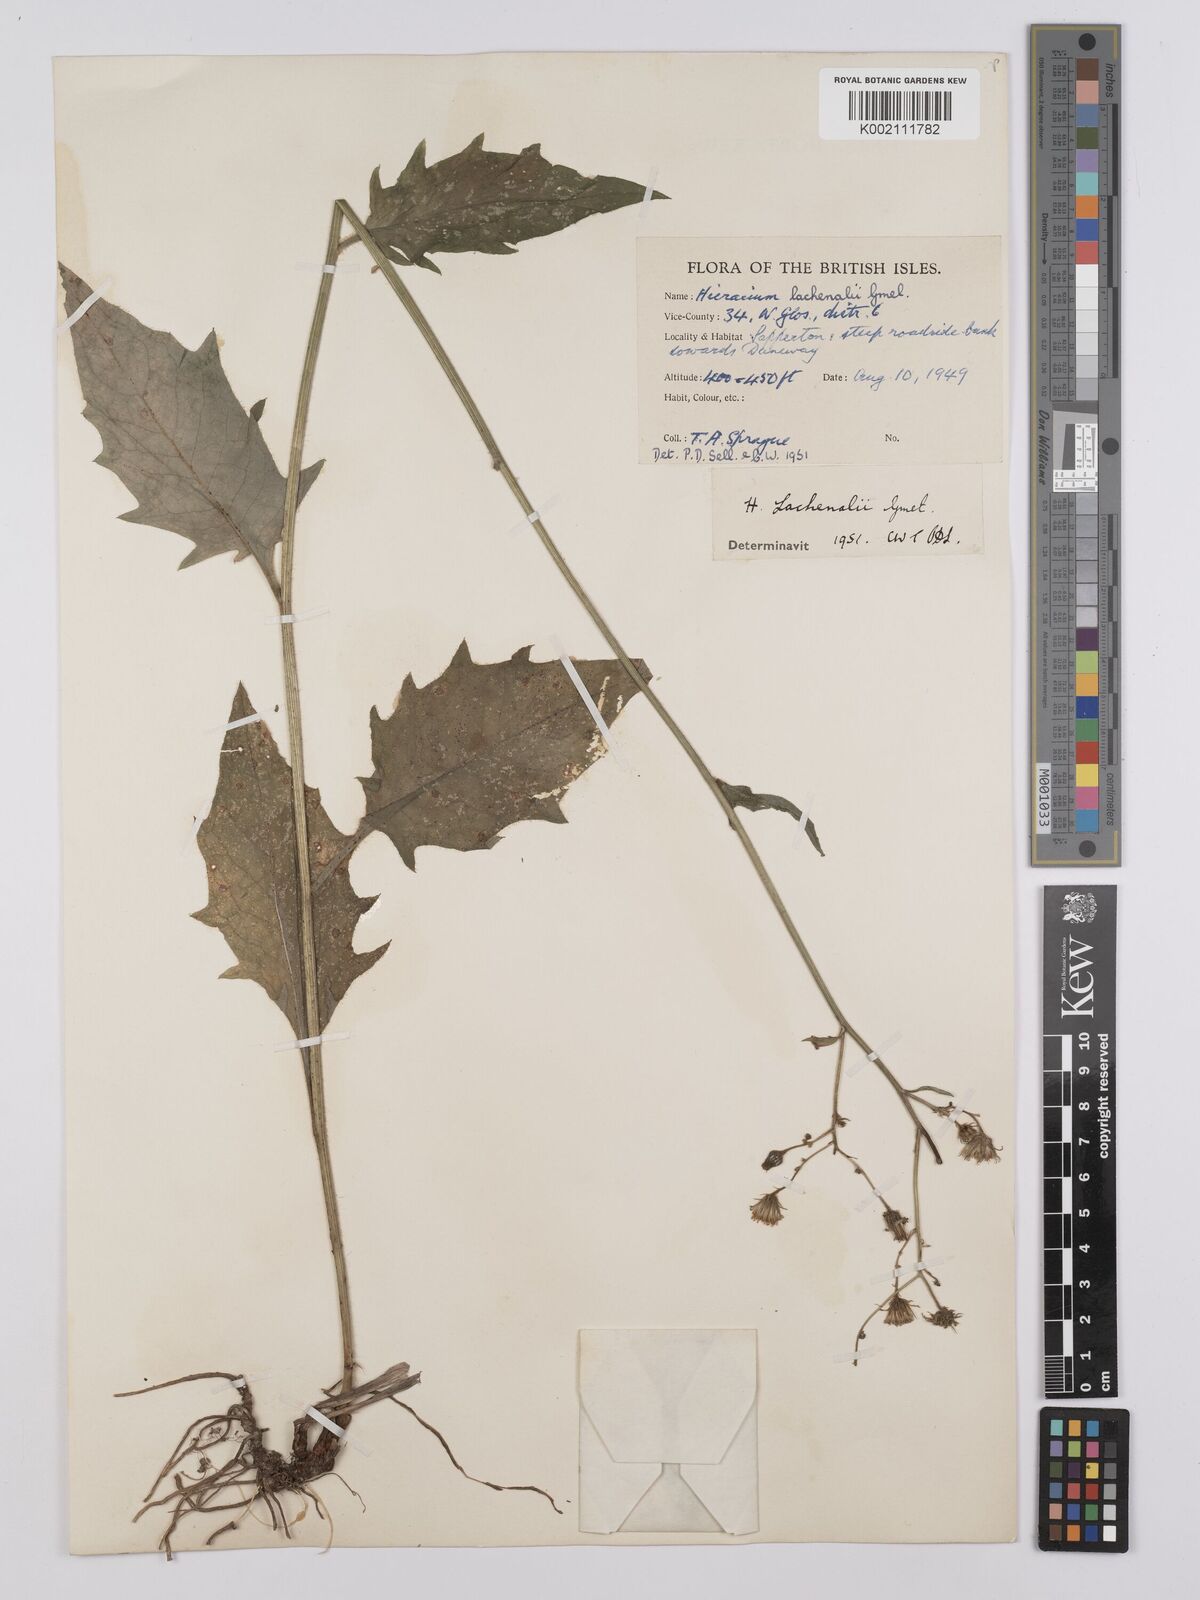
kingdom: Plantae
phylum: Tracheophyta
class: Magnoliopsida
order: Asterales
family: Asteraceae
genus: Hieracium
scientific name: Hieracium lachenalii
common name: Common hawkweed
